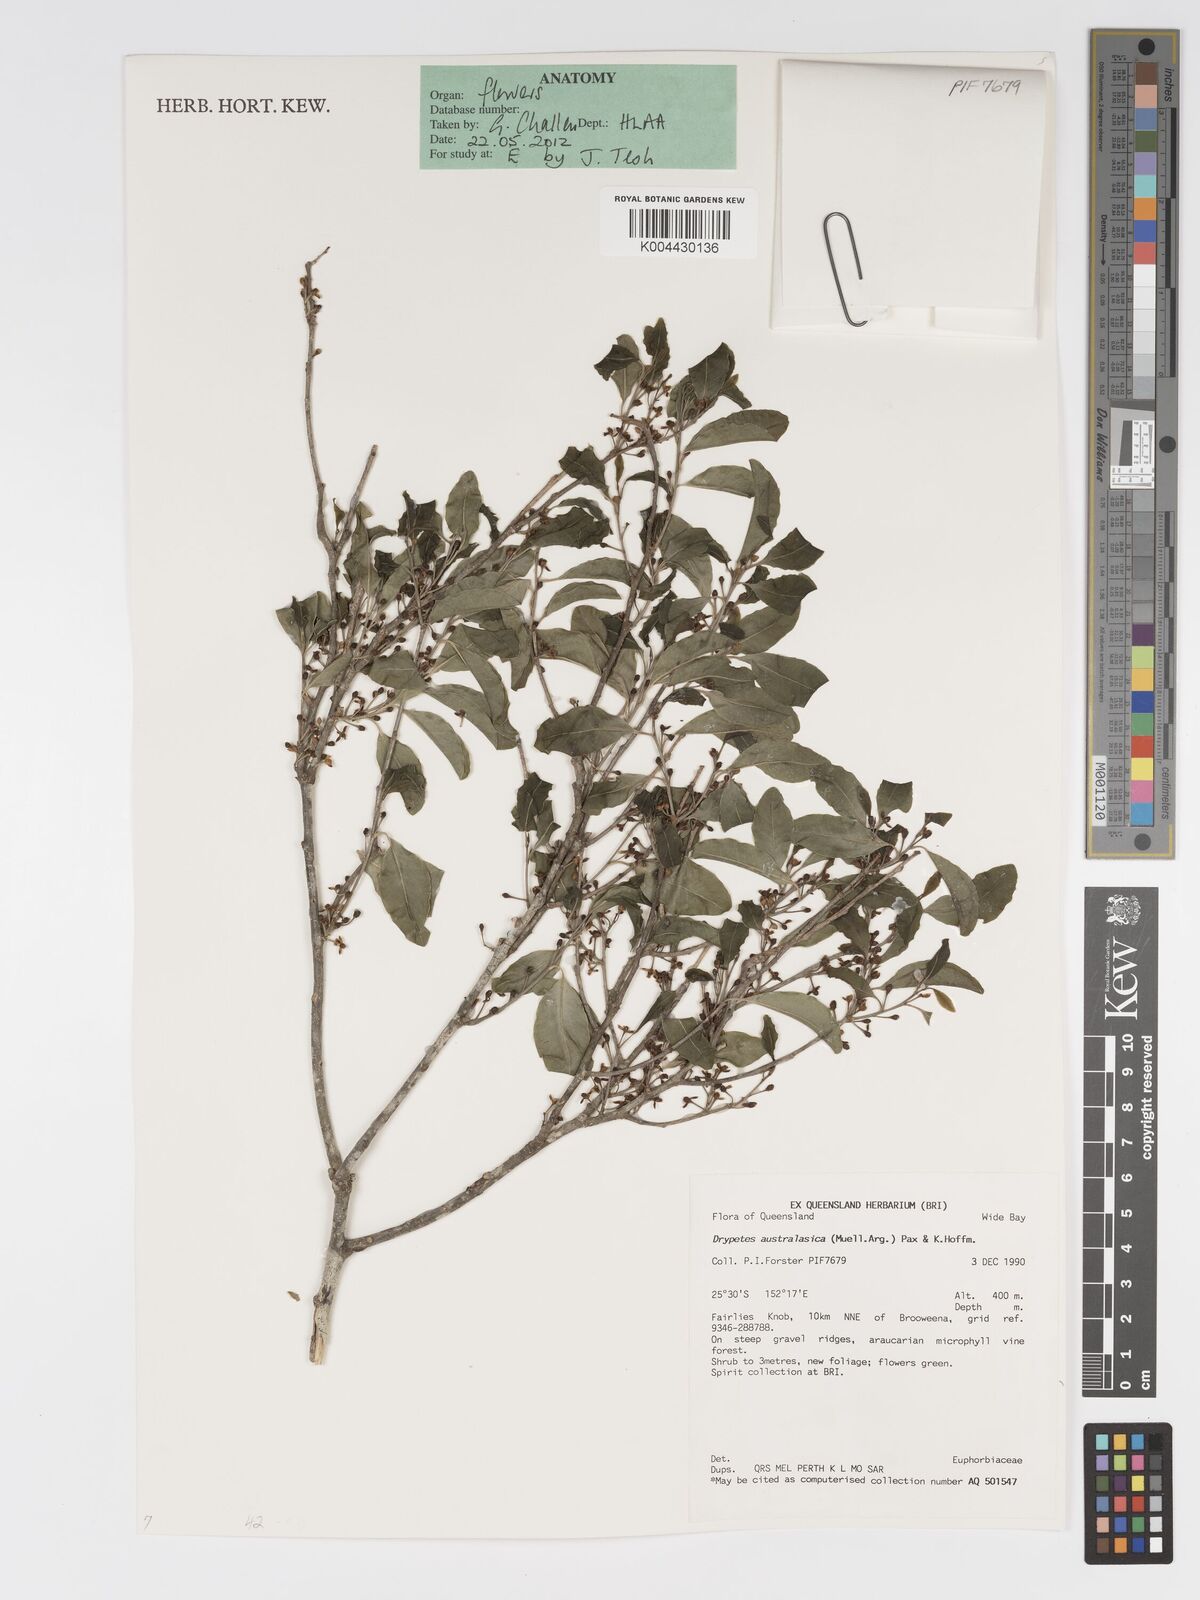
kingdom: Plantae
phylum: Tracheophyta
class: Magnoliopsida
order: Malpighiales
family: Putranjivaceae
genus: Drypetes
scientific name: Drypetes deplanchei
